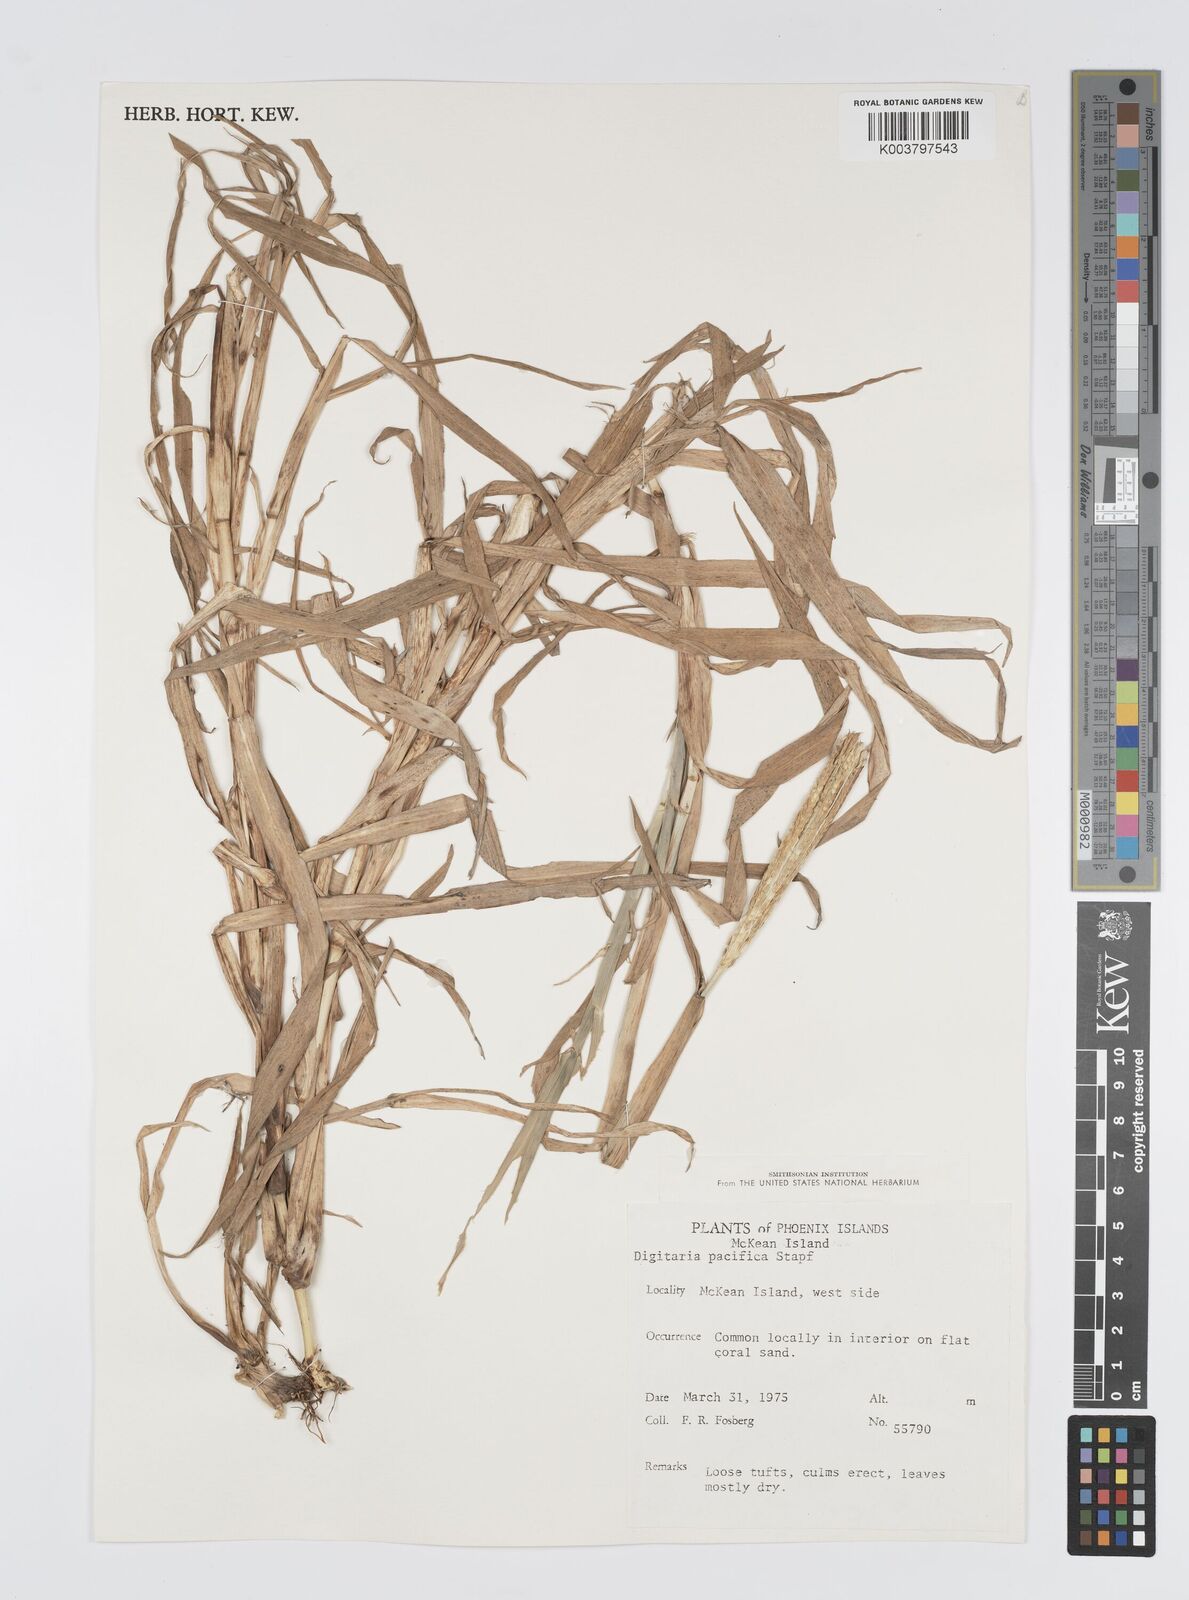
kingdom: Plantae
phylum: Tracheophyta
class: Liliopsida
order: Poales
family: Poaceae
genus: Digitaria
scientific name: Digitaria stenotaphrodes
